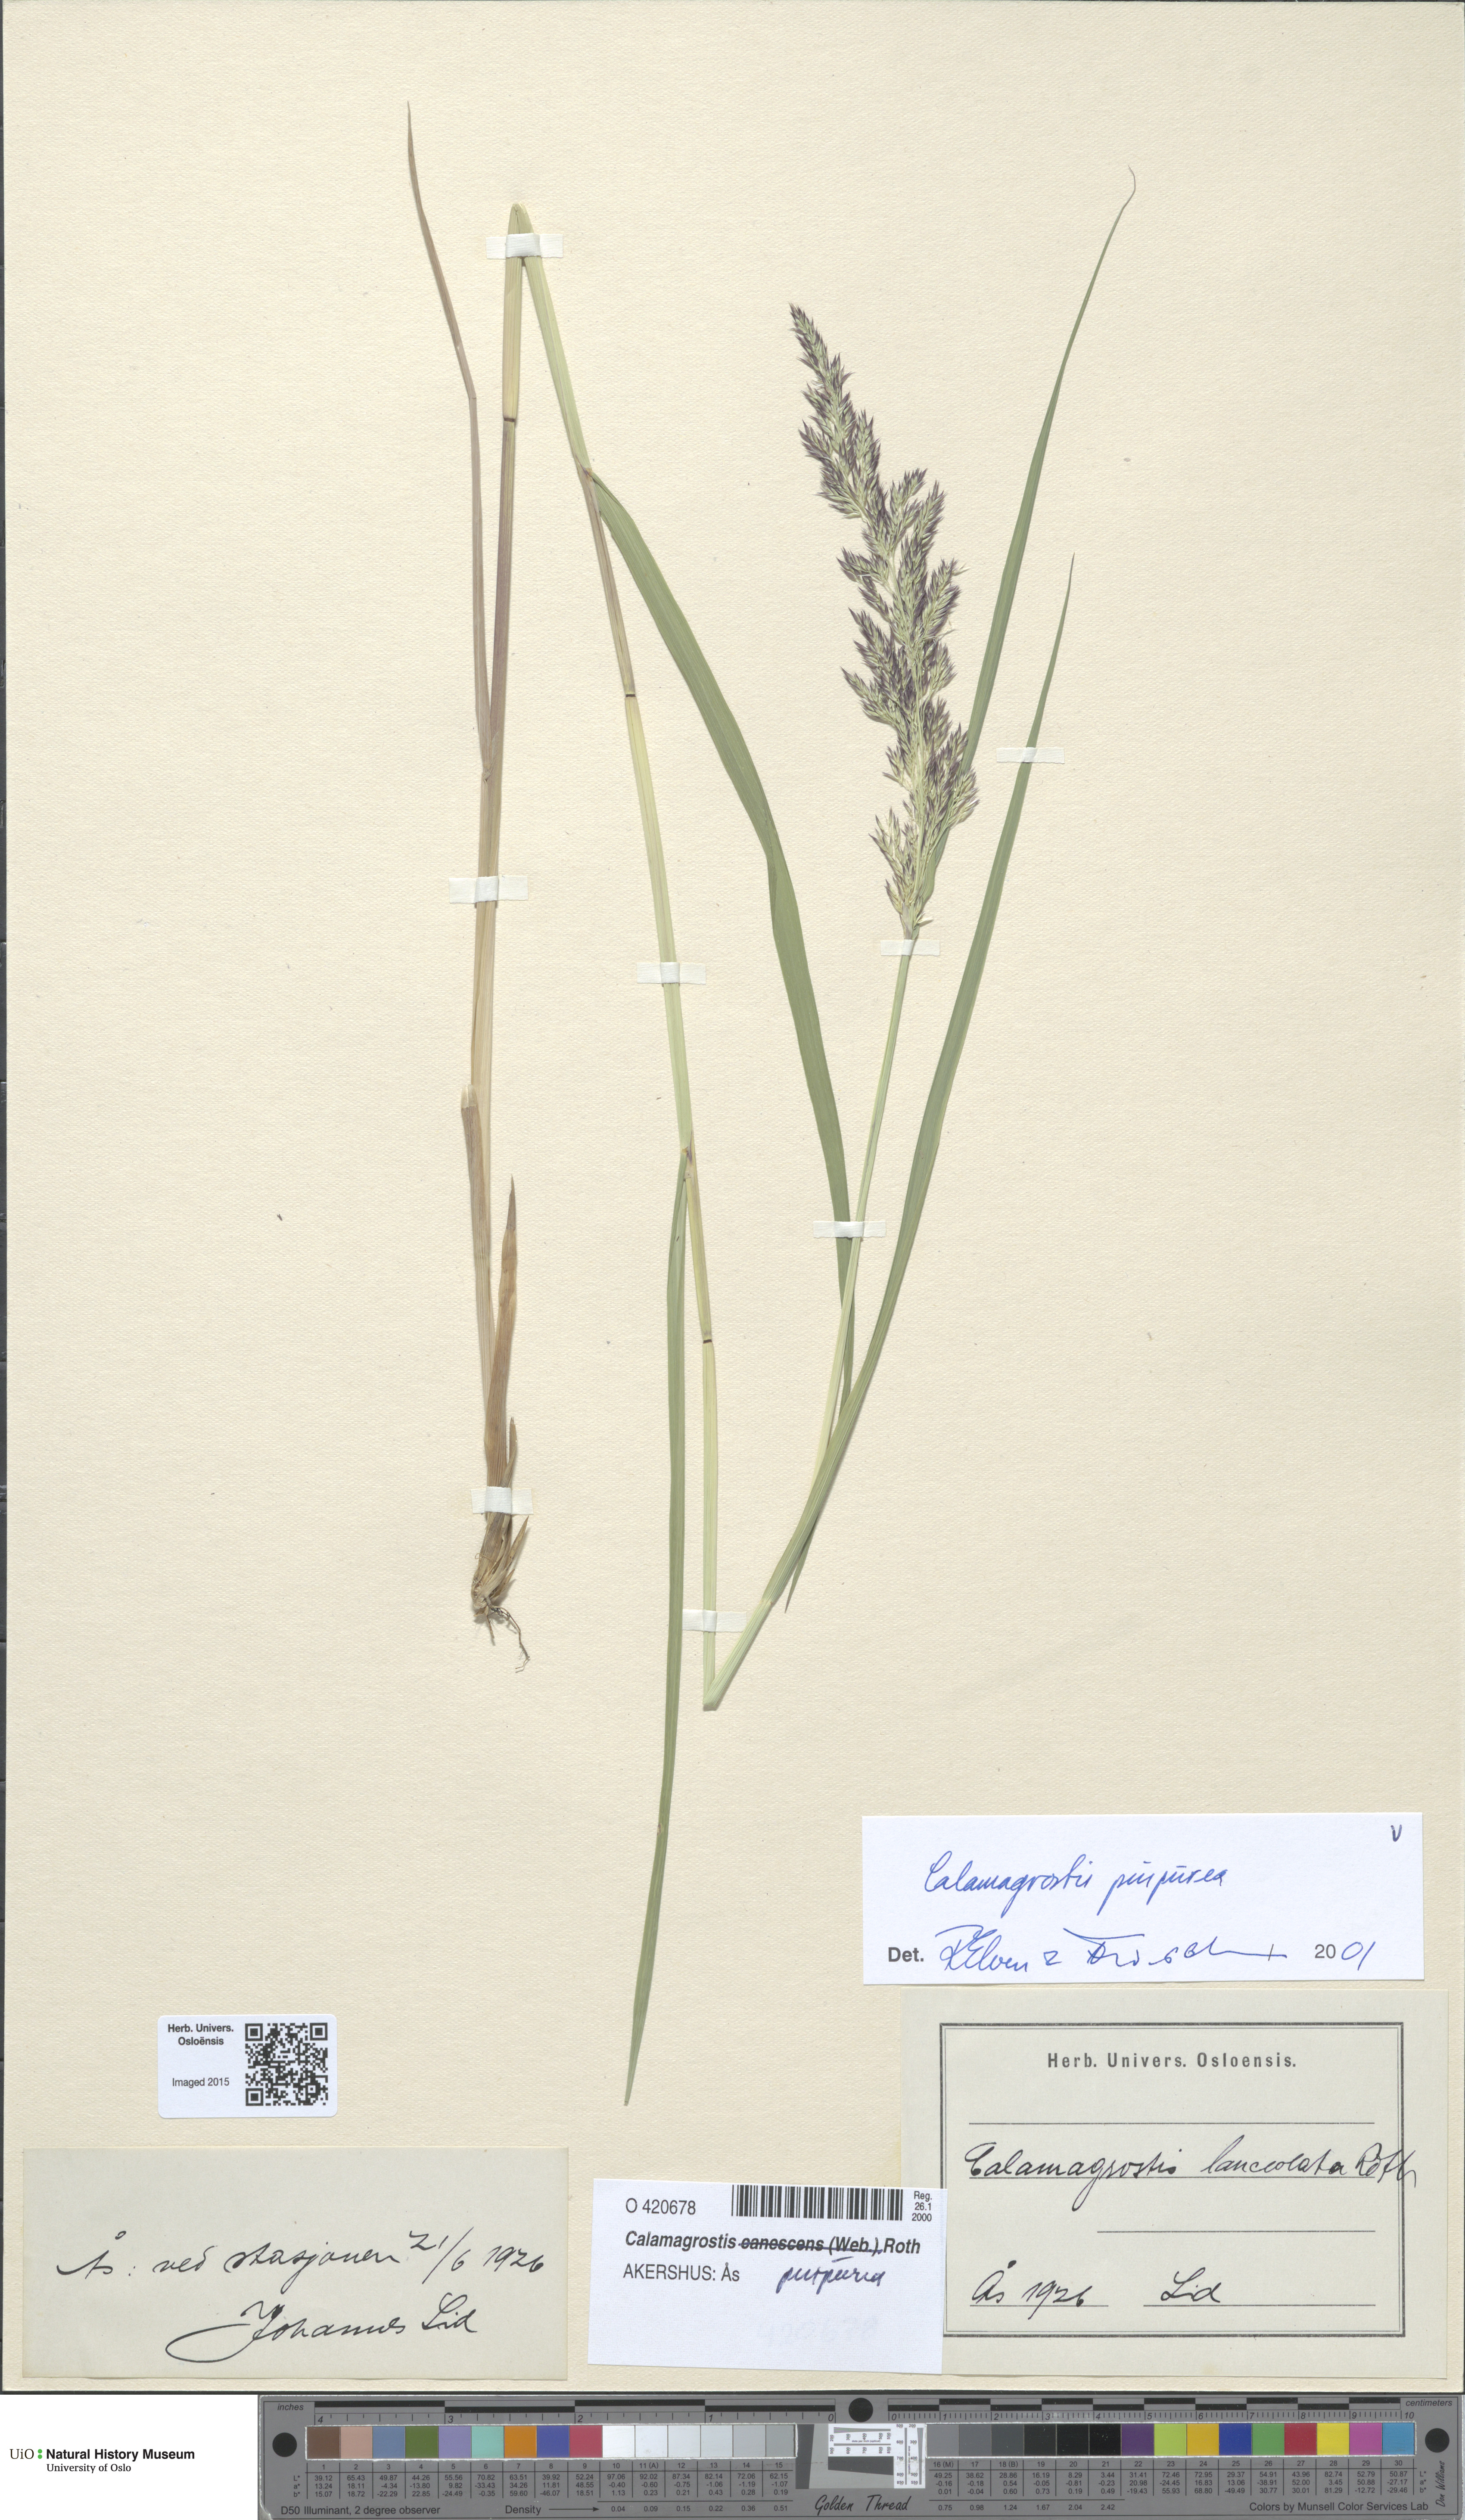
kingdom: Plantae
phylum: Tracheophyta
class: Liliopsida
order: Poales
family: Poaceae
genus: Calamagrostis
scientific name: Calamagrostis purpurea
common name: Scandinavian small-reed
